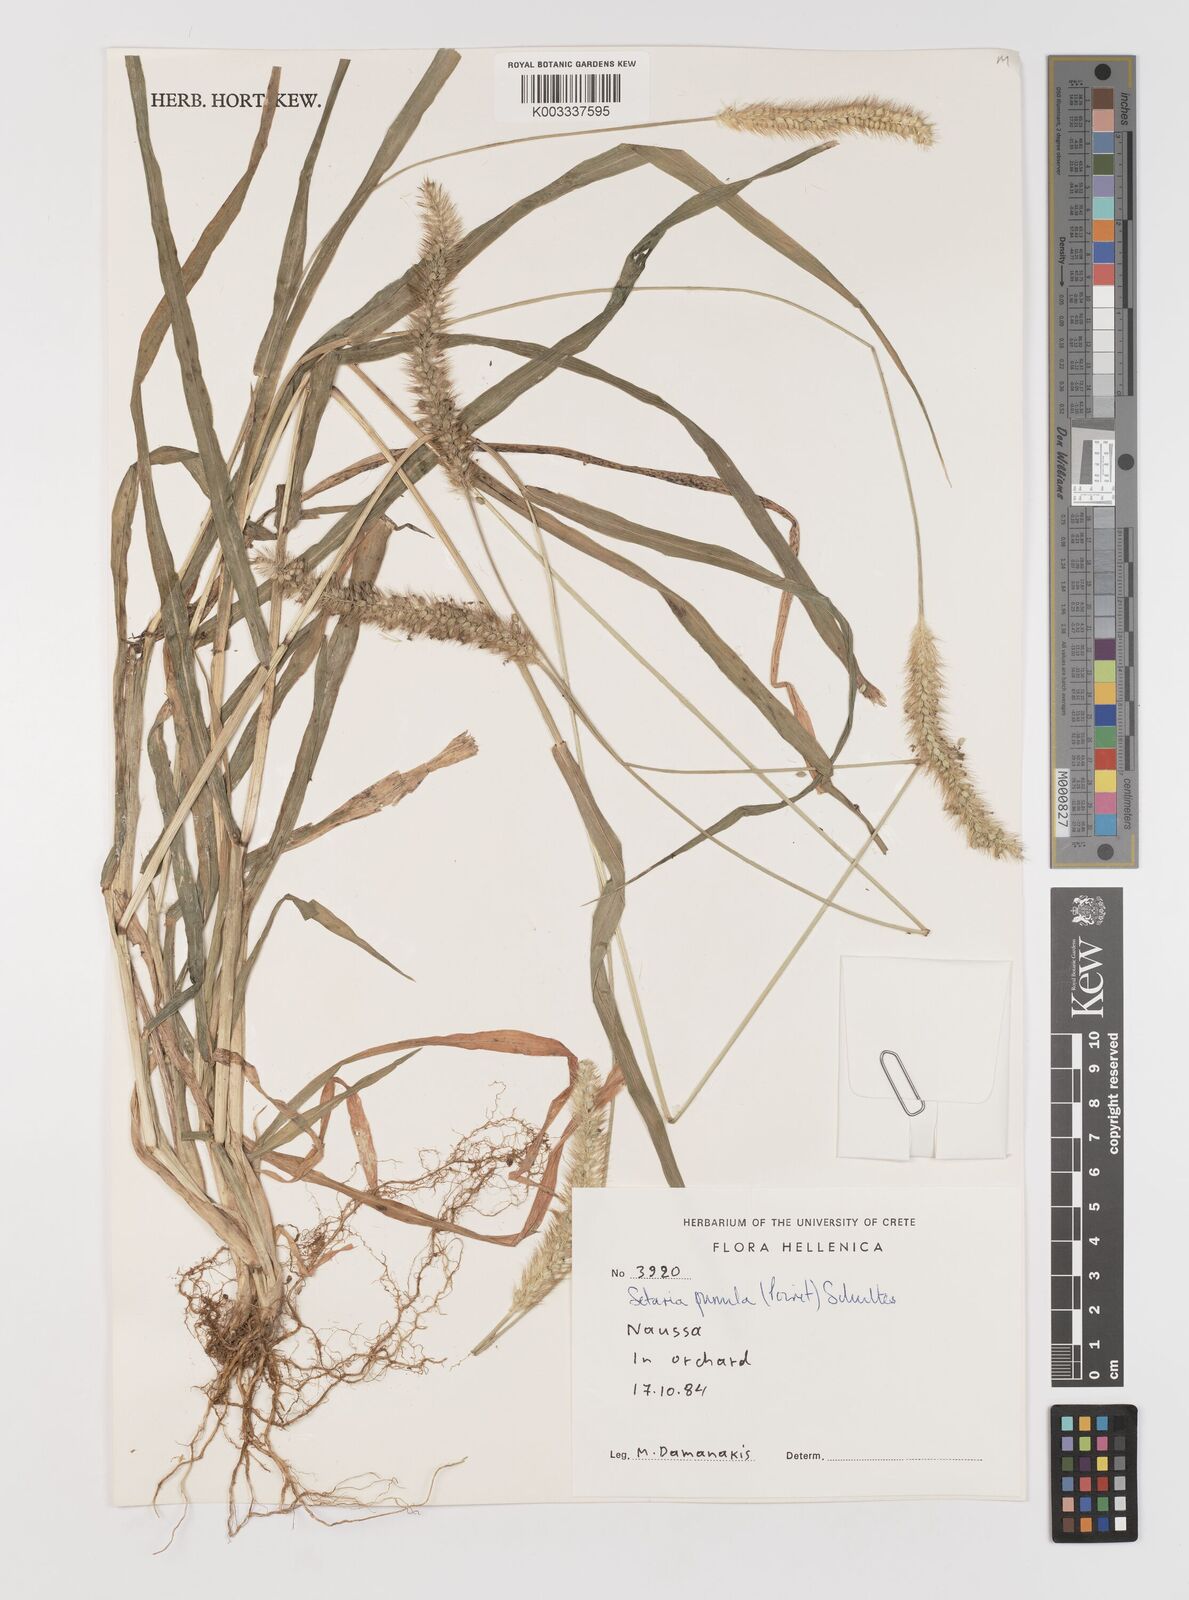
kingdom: Plantae
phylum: Tracheophyta
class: Liliopsida
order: Poales
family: Poaceae
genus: Setaria
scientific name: Setaria pumila
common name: Yellow bristle-grass
